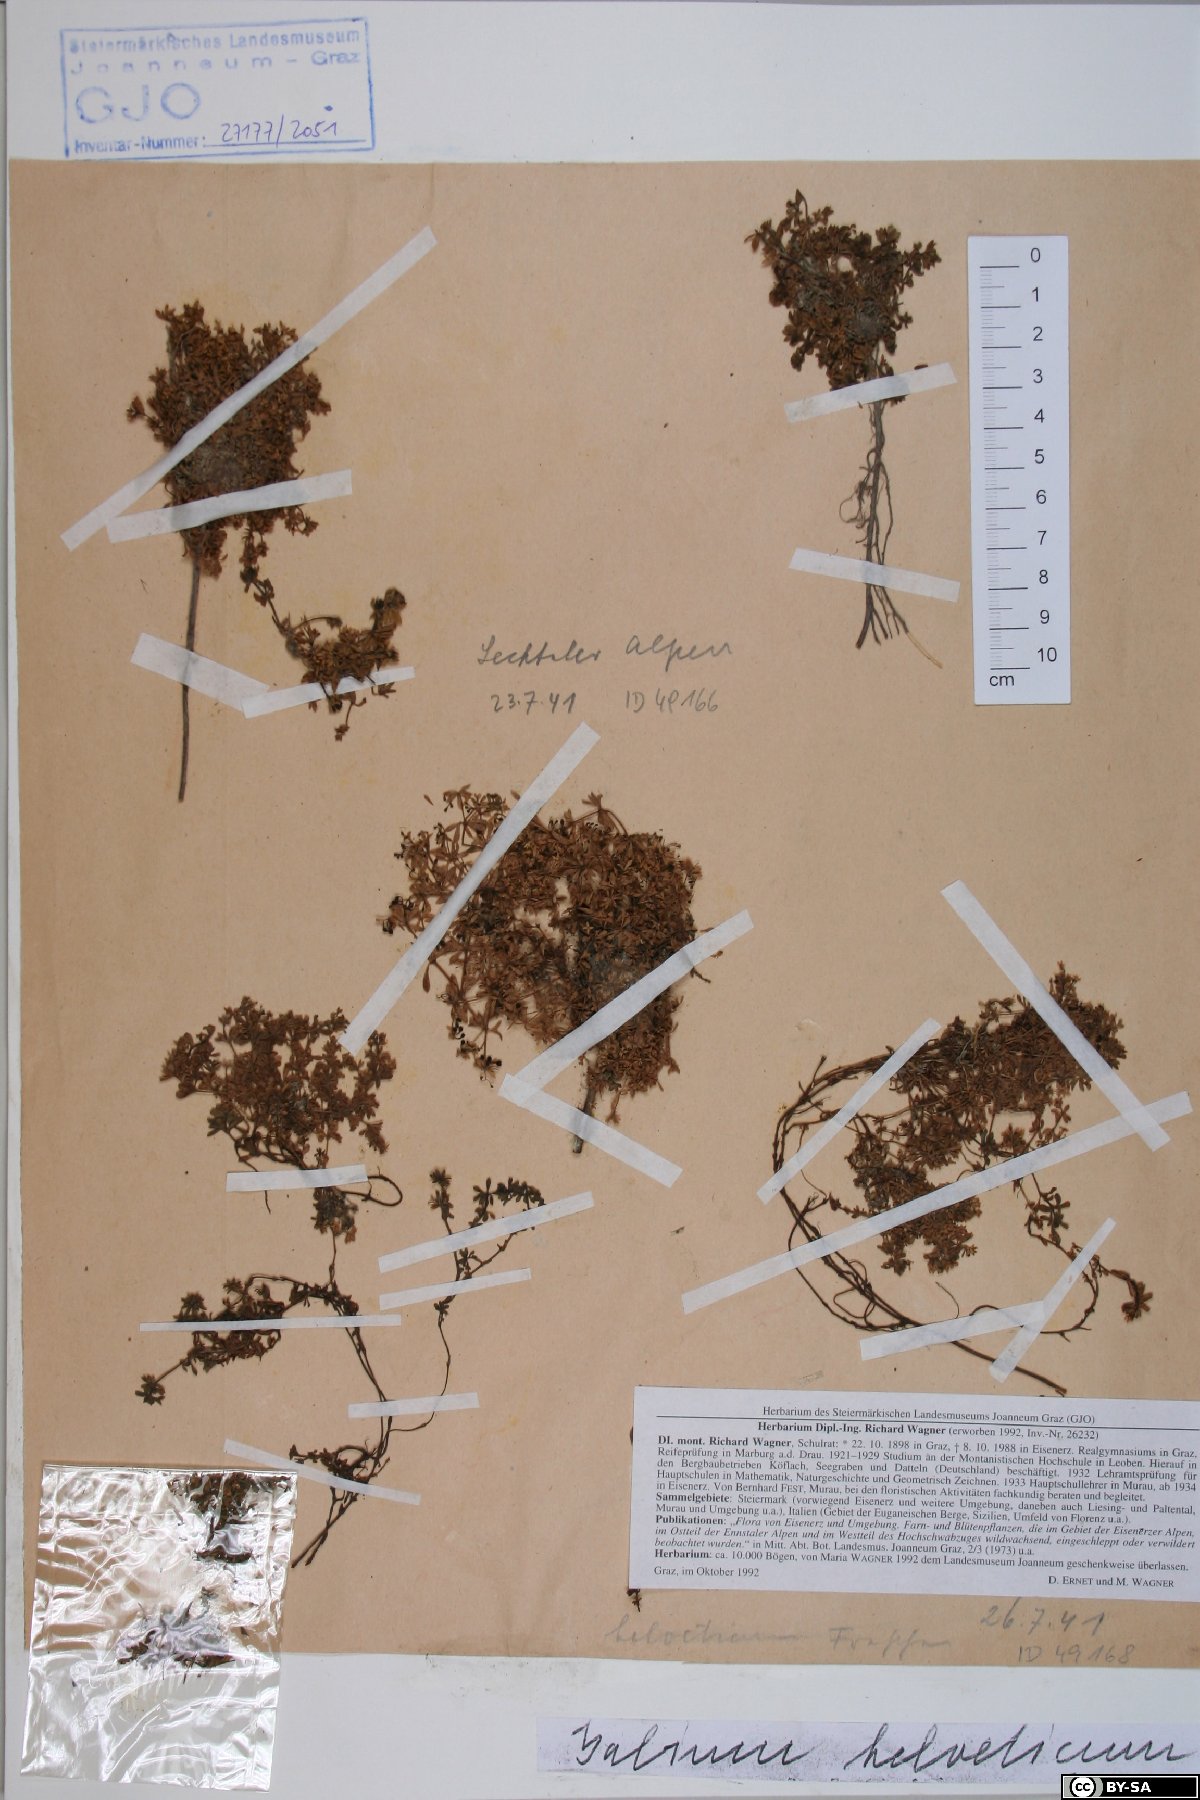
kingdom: Plantae
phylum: Tracheophyta
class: Magnoliopsida
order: Gentianales
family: Rubiaceae
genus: Galium
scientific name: Galium saxatile
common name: Heath bedstraw
